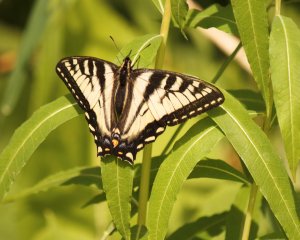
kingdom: Animalia
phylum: Arthropoda
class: Insecta
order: Lepidoptera
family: Papilionidae
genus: Pterourus
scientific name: Pterourus canadensis
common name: Canadian Tiger Swallowtail
